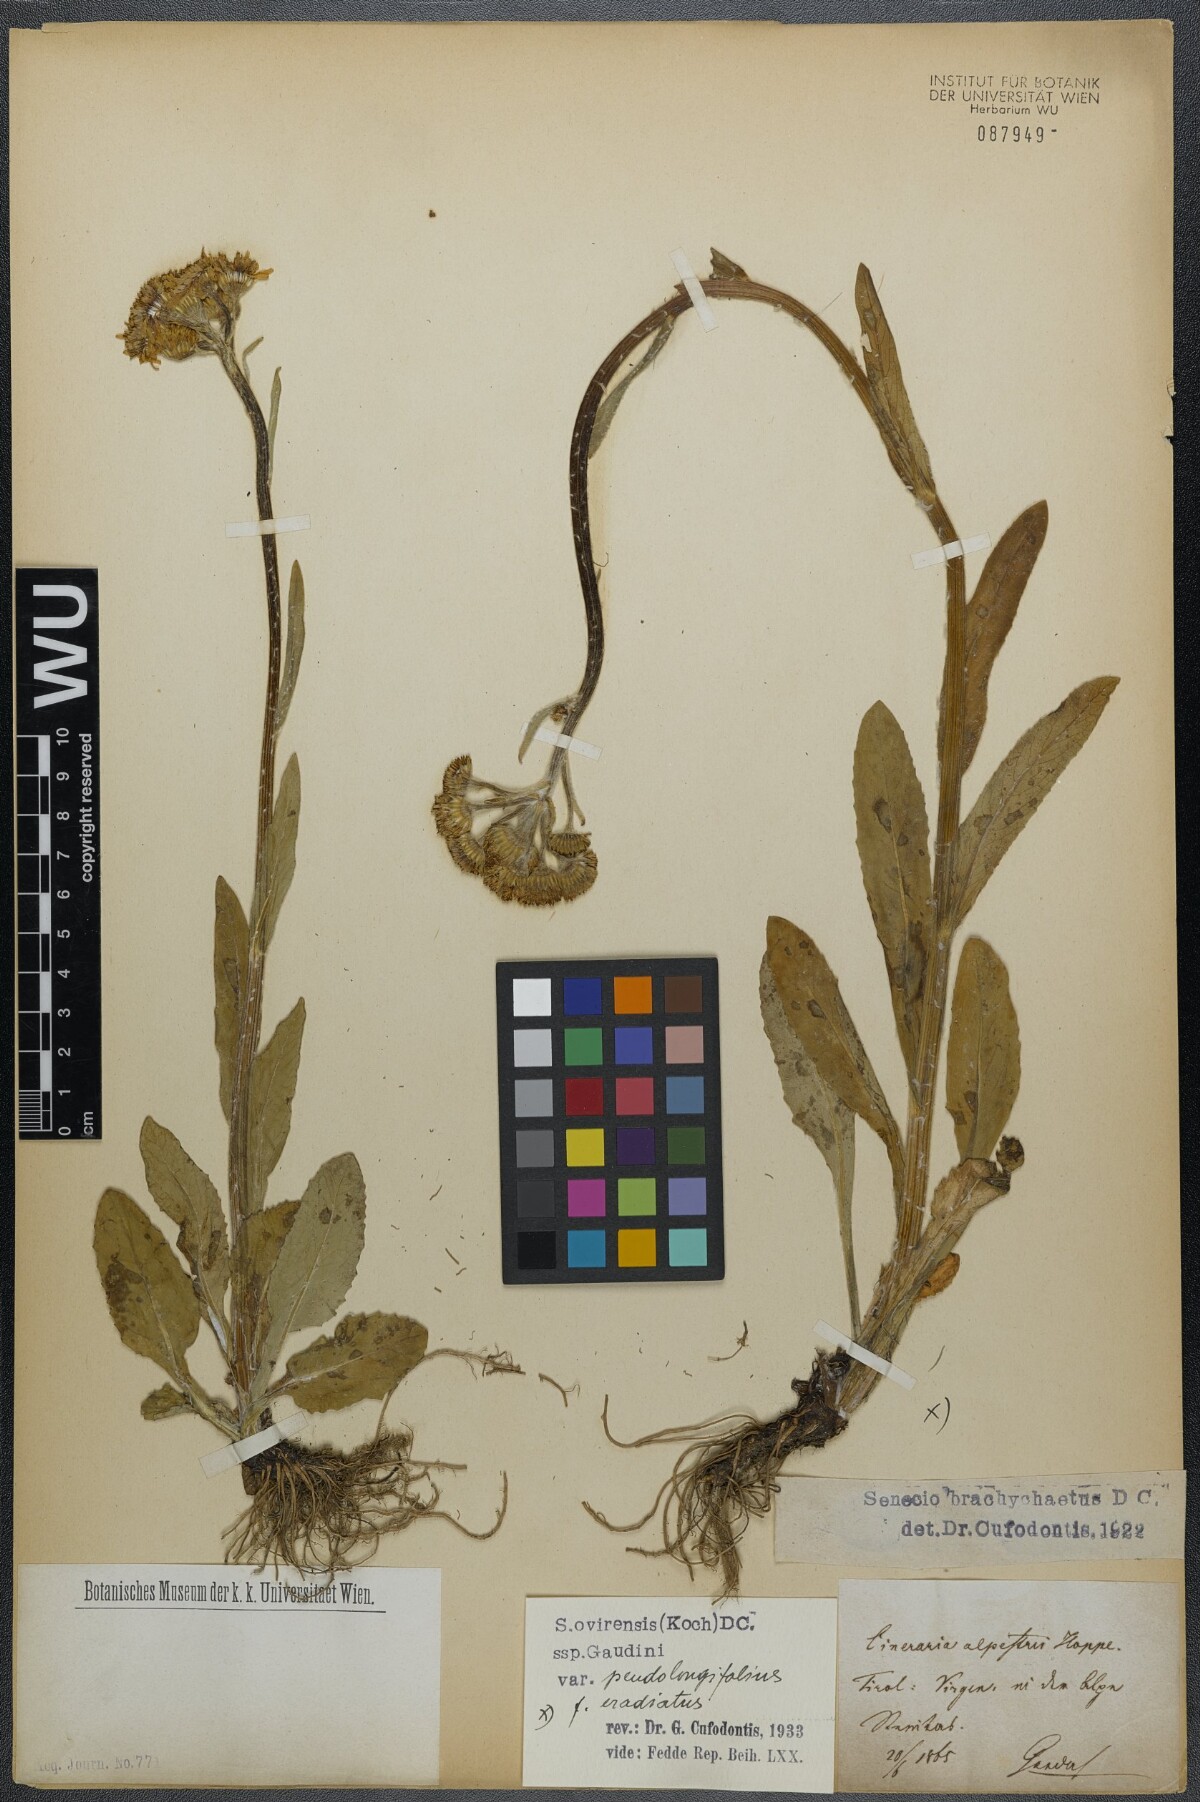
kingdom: Plantae
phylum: Tracheophyta
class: Magnoliopsida
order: Asterales
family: Asteraceae
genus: Tephroseris
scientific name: Tephroseris tenuifolia
